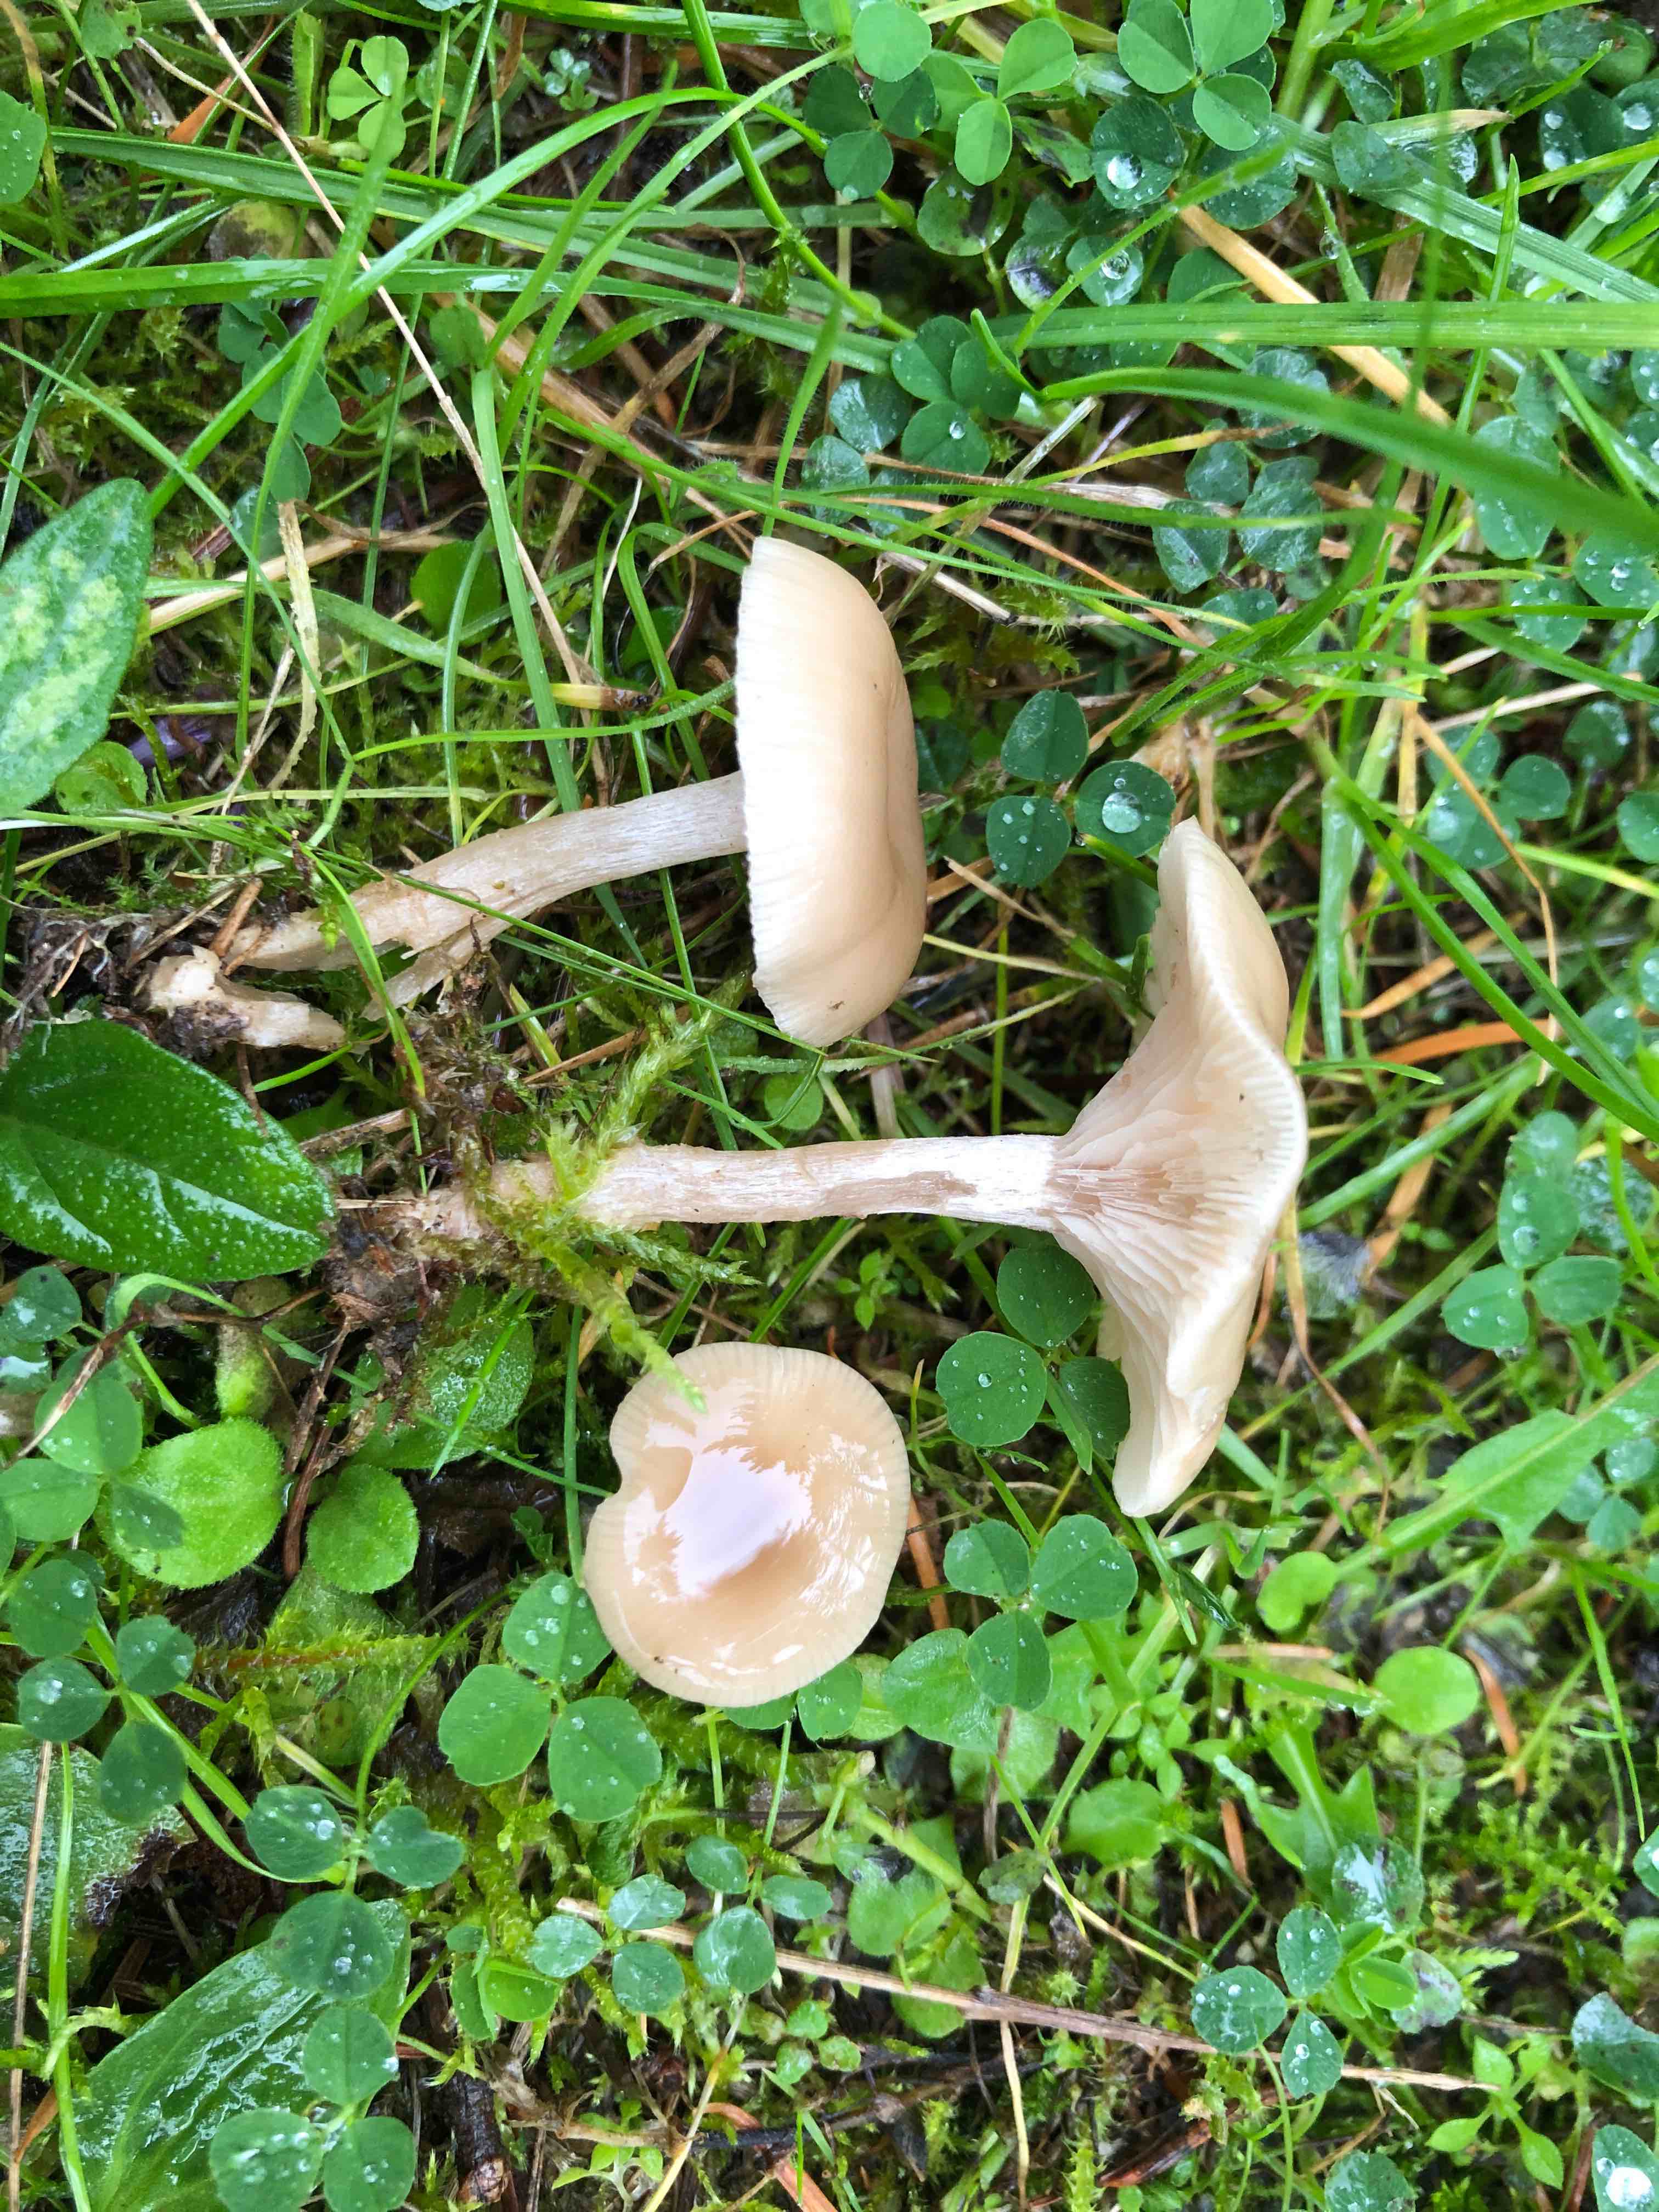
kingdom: Fungi
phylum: Basidiomycota
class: Agaricomycetes
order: Agaricales
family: Tricholomataceae
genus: Clitocybe
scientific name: Clitocybe fragrans
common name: vellugtende tragthat
